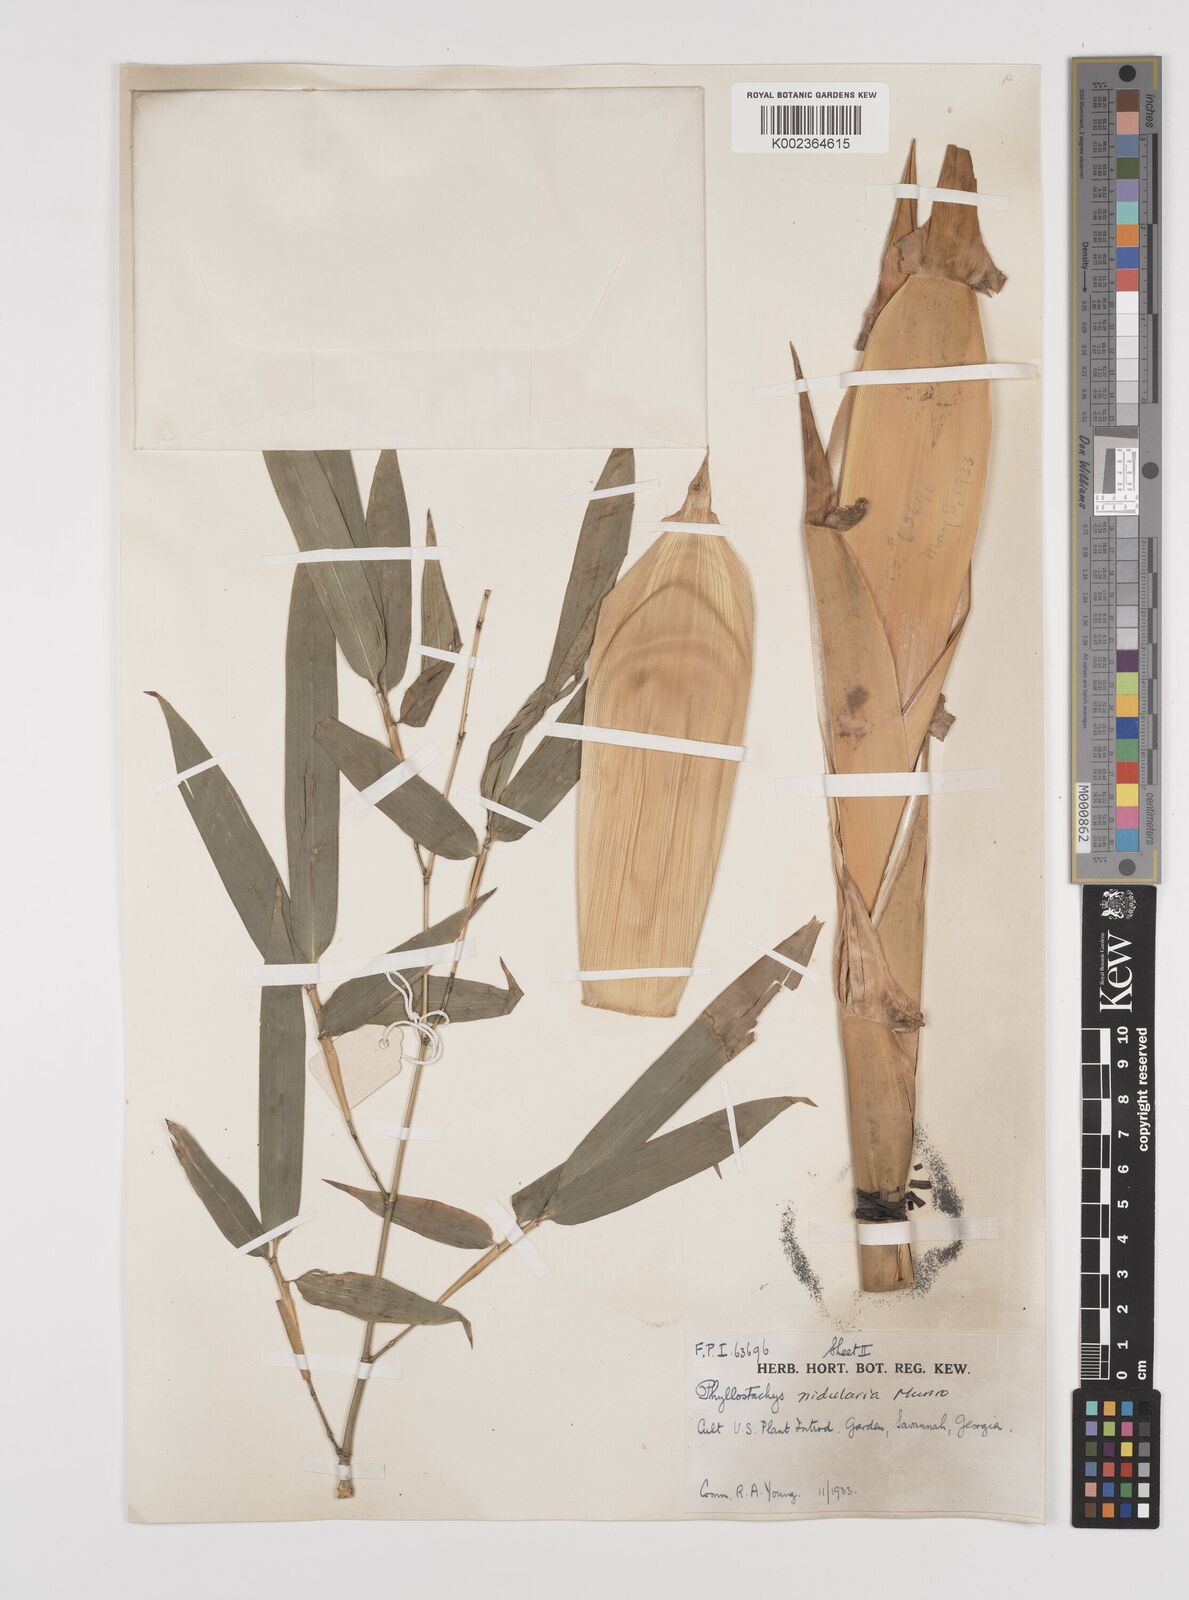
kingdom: Plantae
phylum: Tracheophyta
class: Liliopsida
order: Poales
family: Poaceae
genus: Phyllostachys
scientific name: Phyllostachys nidularia
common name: Broom bamboo
